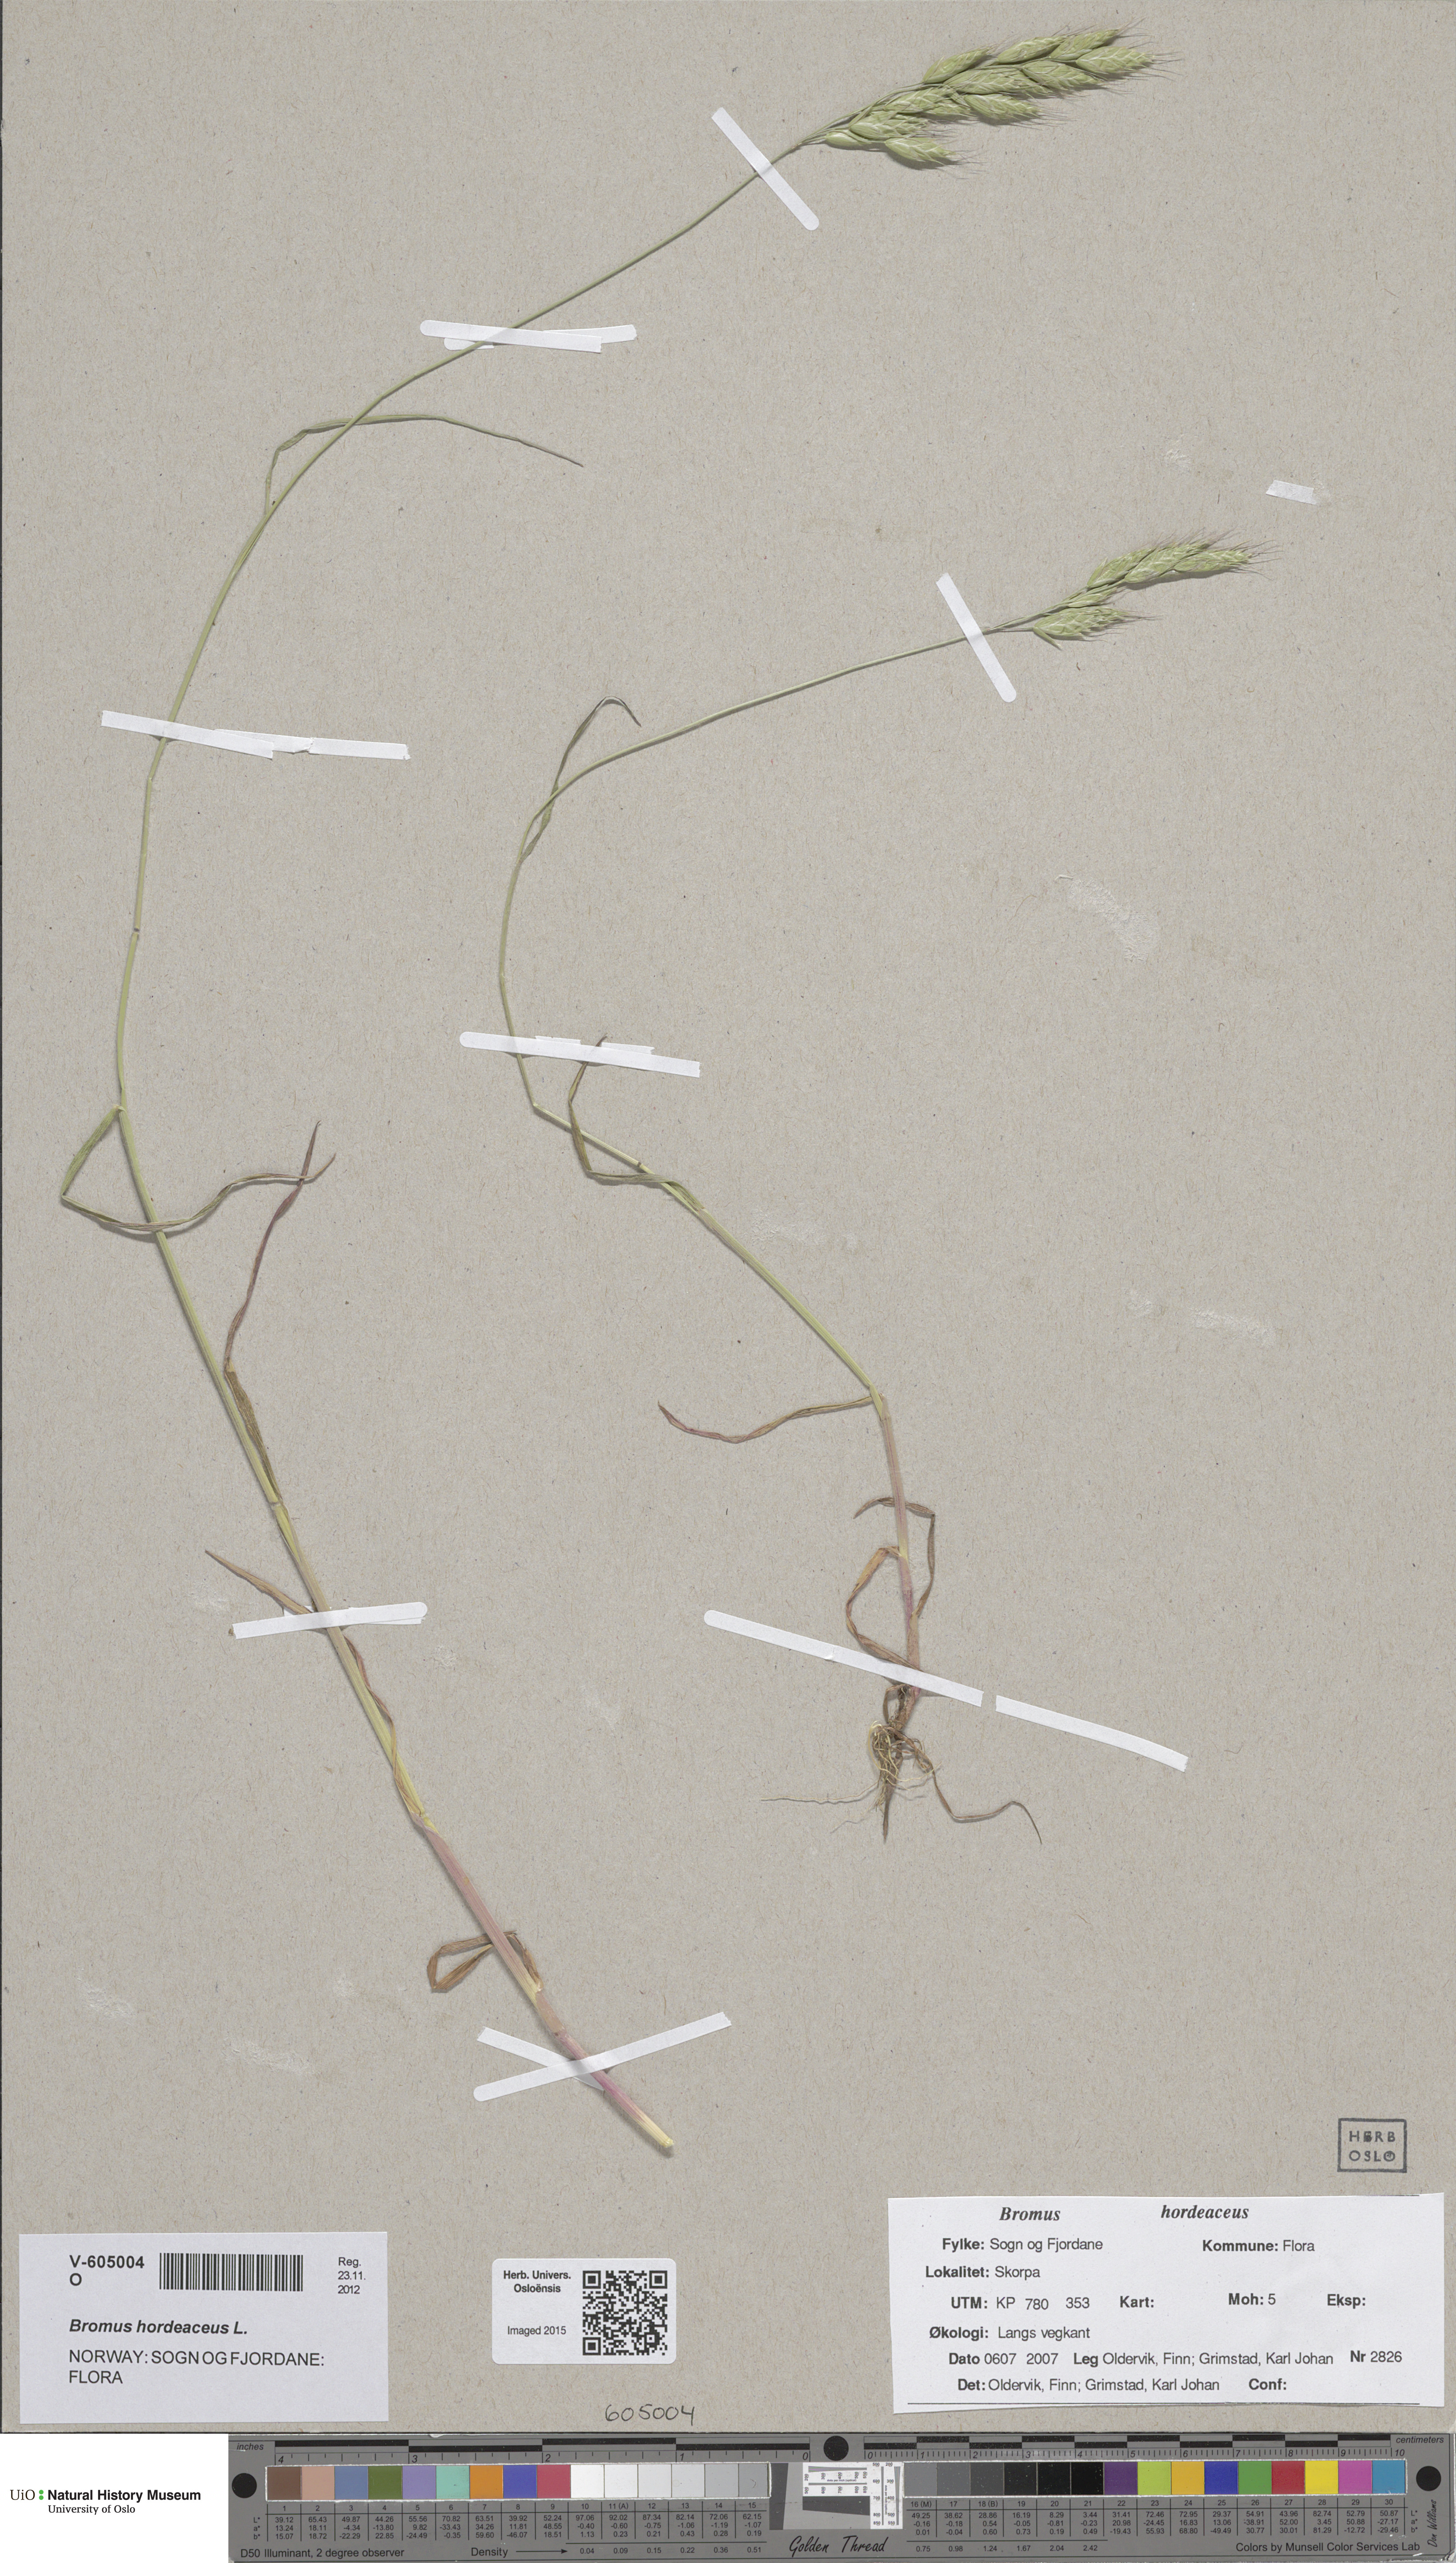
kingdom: Plantae
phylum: Tracheophyta
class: Liliopsida
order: Poales
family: Poaceae
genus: Bromus
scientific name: Bromus hordeaceus
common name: Soft brome
